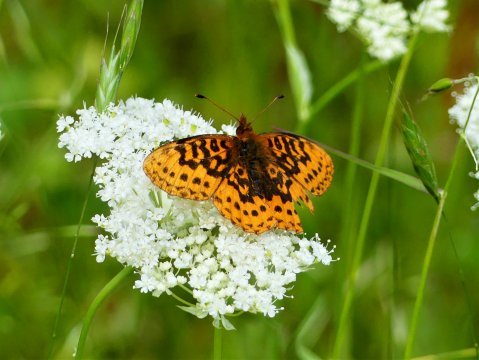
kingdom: Animalia
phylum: Arthropoda
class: Insecta
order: Lepidoptera
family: Nymphalidae
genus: Boloria
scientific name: Boloria epithore
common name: Pacific Fritillary
